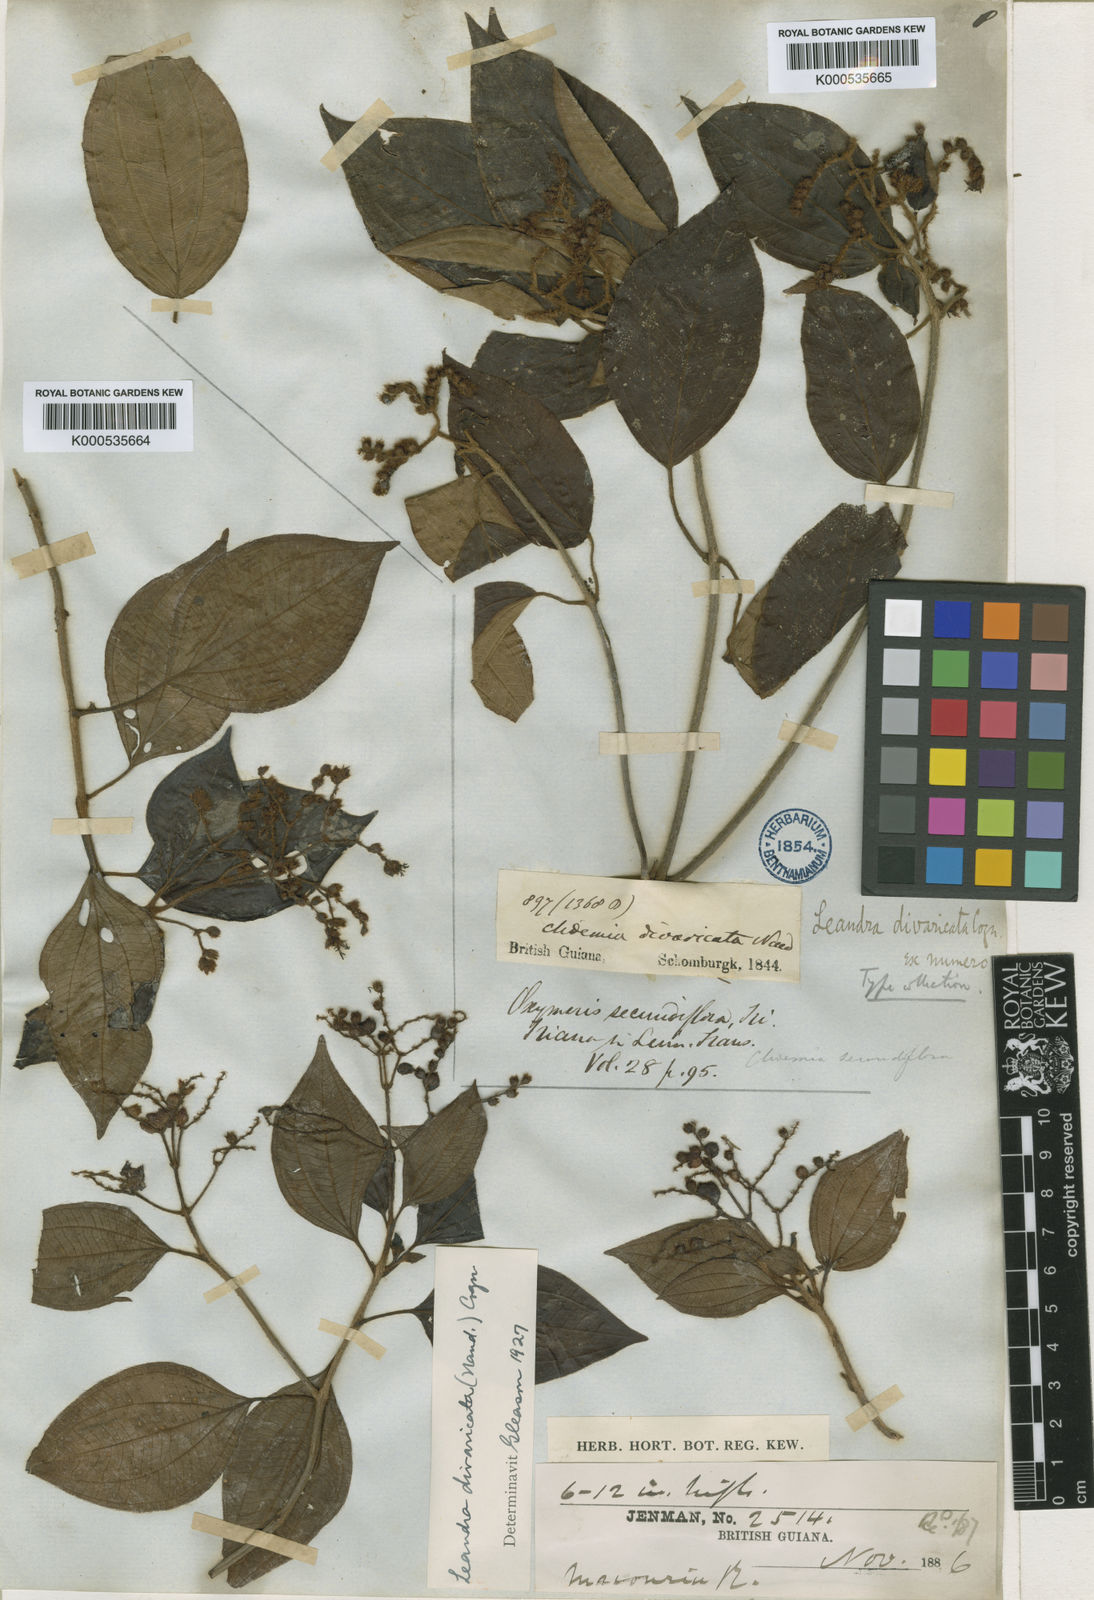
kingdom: Plantae
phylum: Tracheophyta
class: Magnoliopsida
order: Myrtales
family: Melastomataceae
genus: Miconia
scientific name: Miconia secundivaricata
